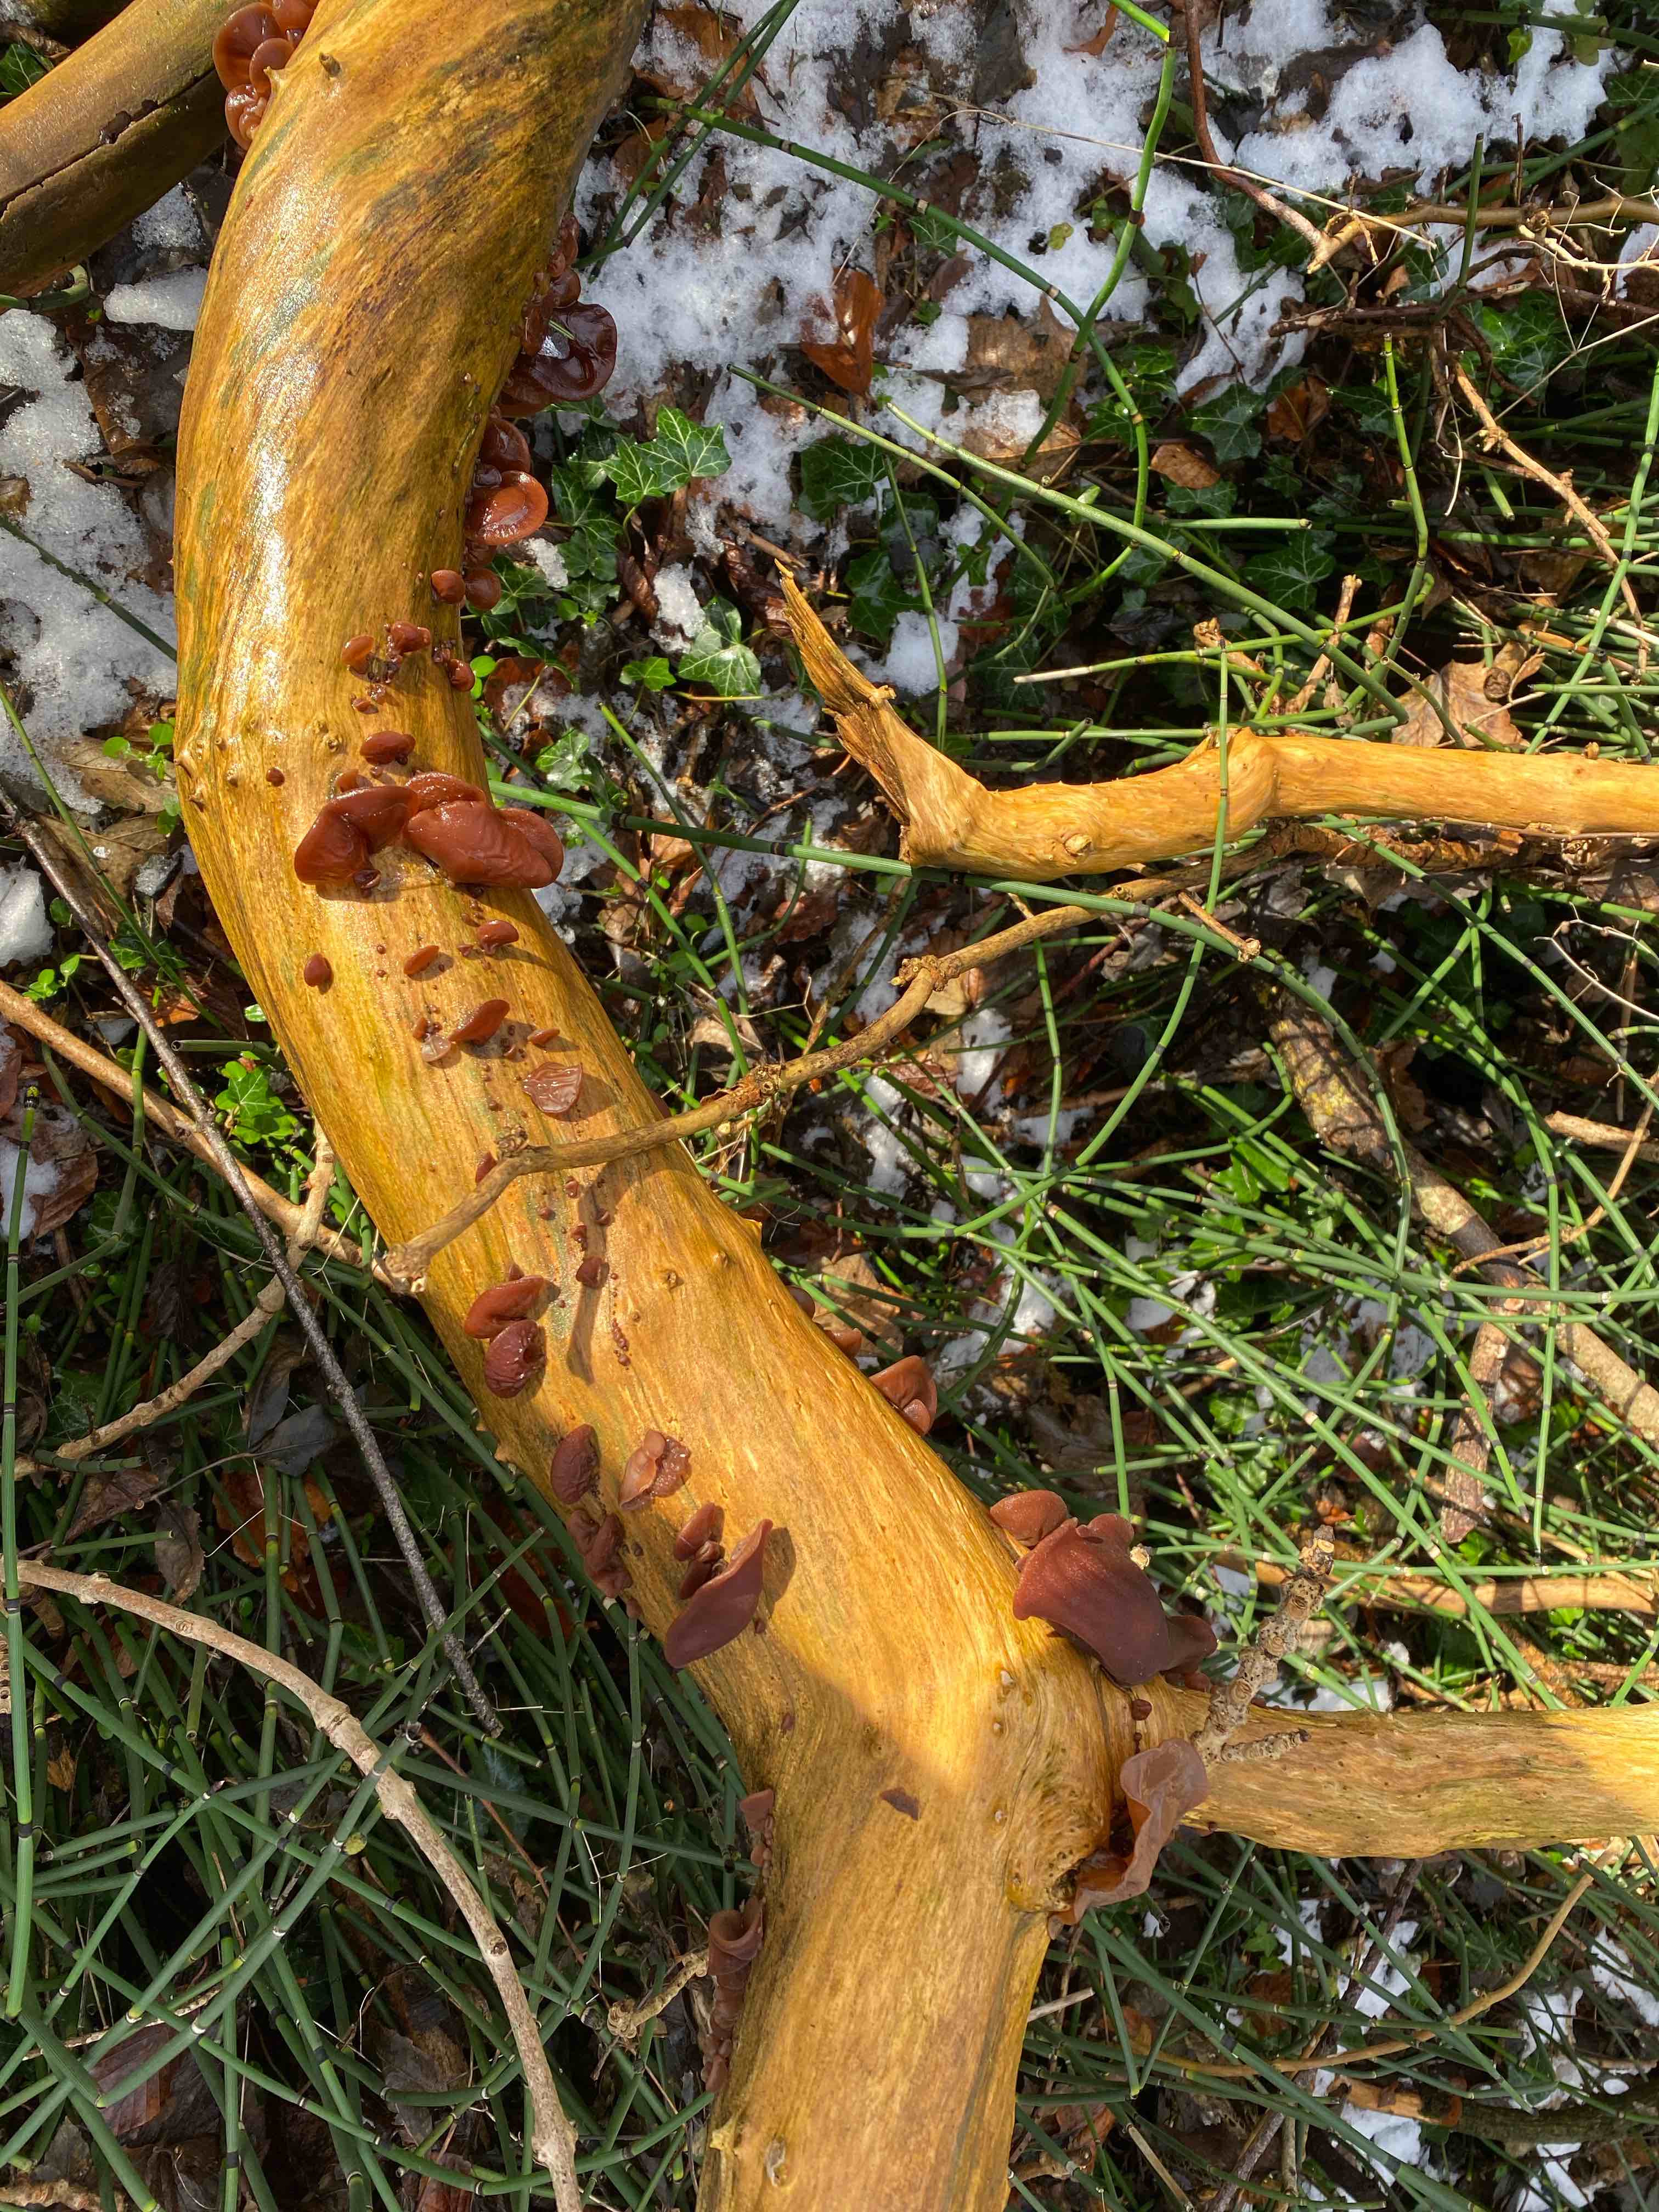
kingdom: Fungi
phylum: Basidiomycota
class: Agaricomycetes
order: Auriculariales
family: Auriculariaceae
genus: Auricularia
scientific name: Auricularia auricula-judae
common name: almindelig judasøre
